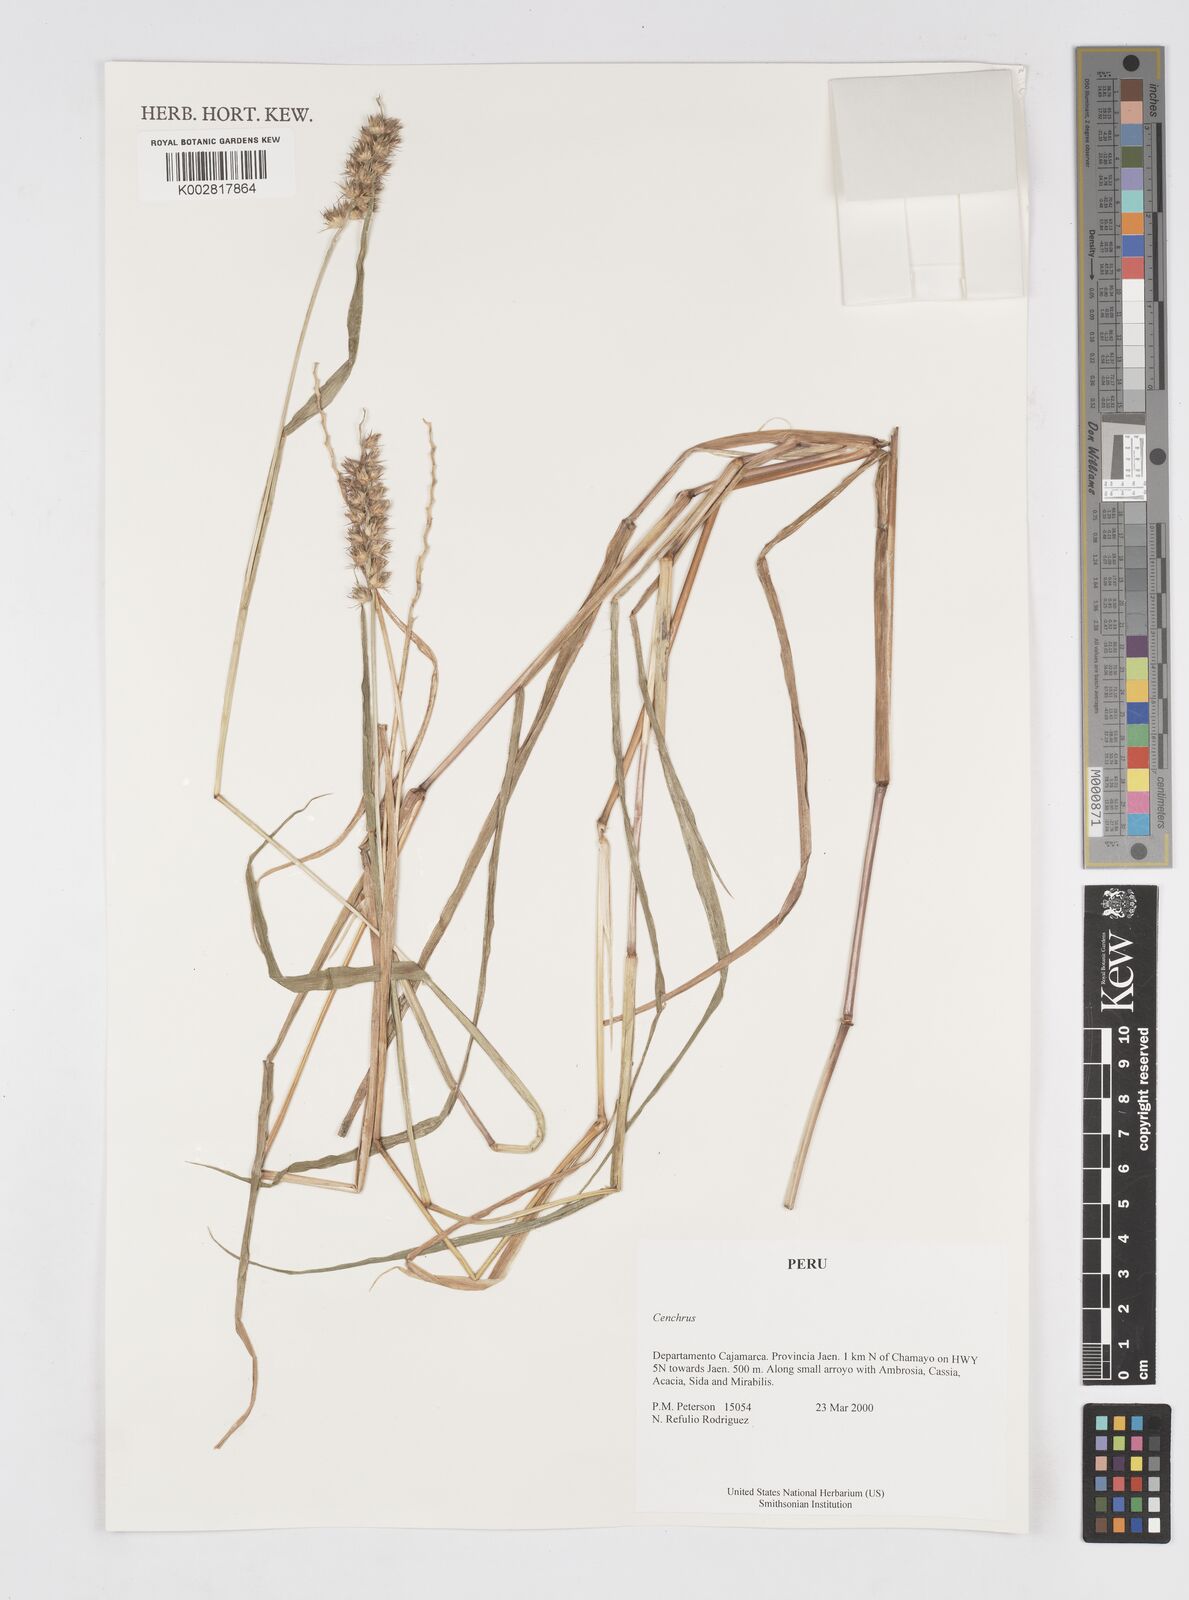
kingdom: Plantae
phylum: Tracheophyta
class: Liliopsida
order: Poales
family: Poaceae
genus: Cenchrus
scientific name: Cenchrus
